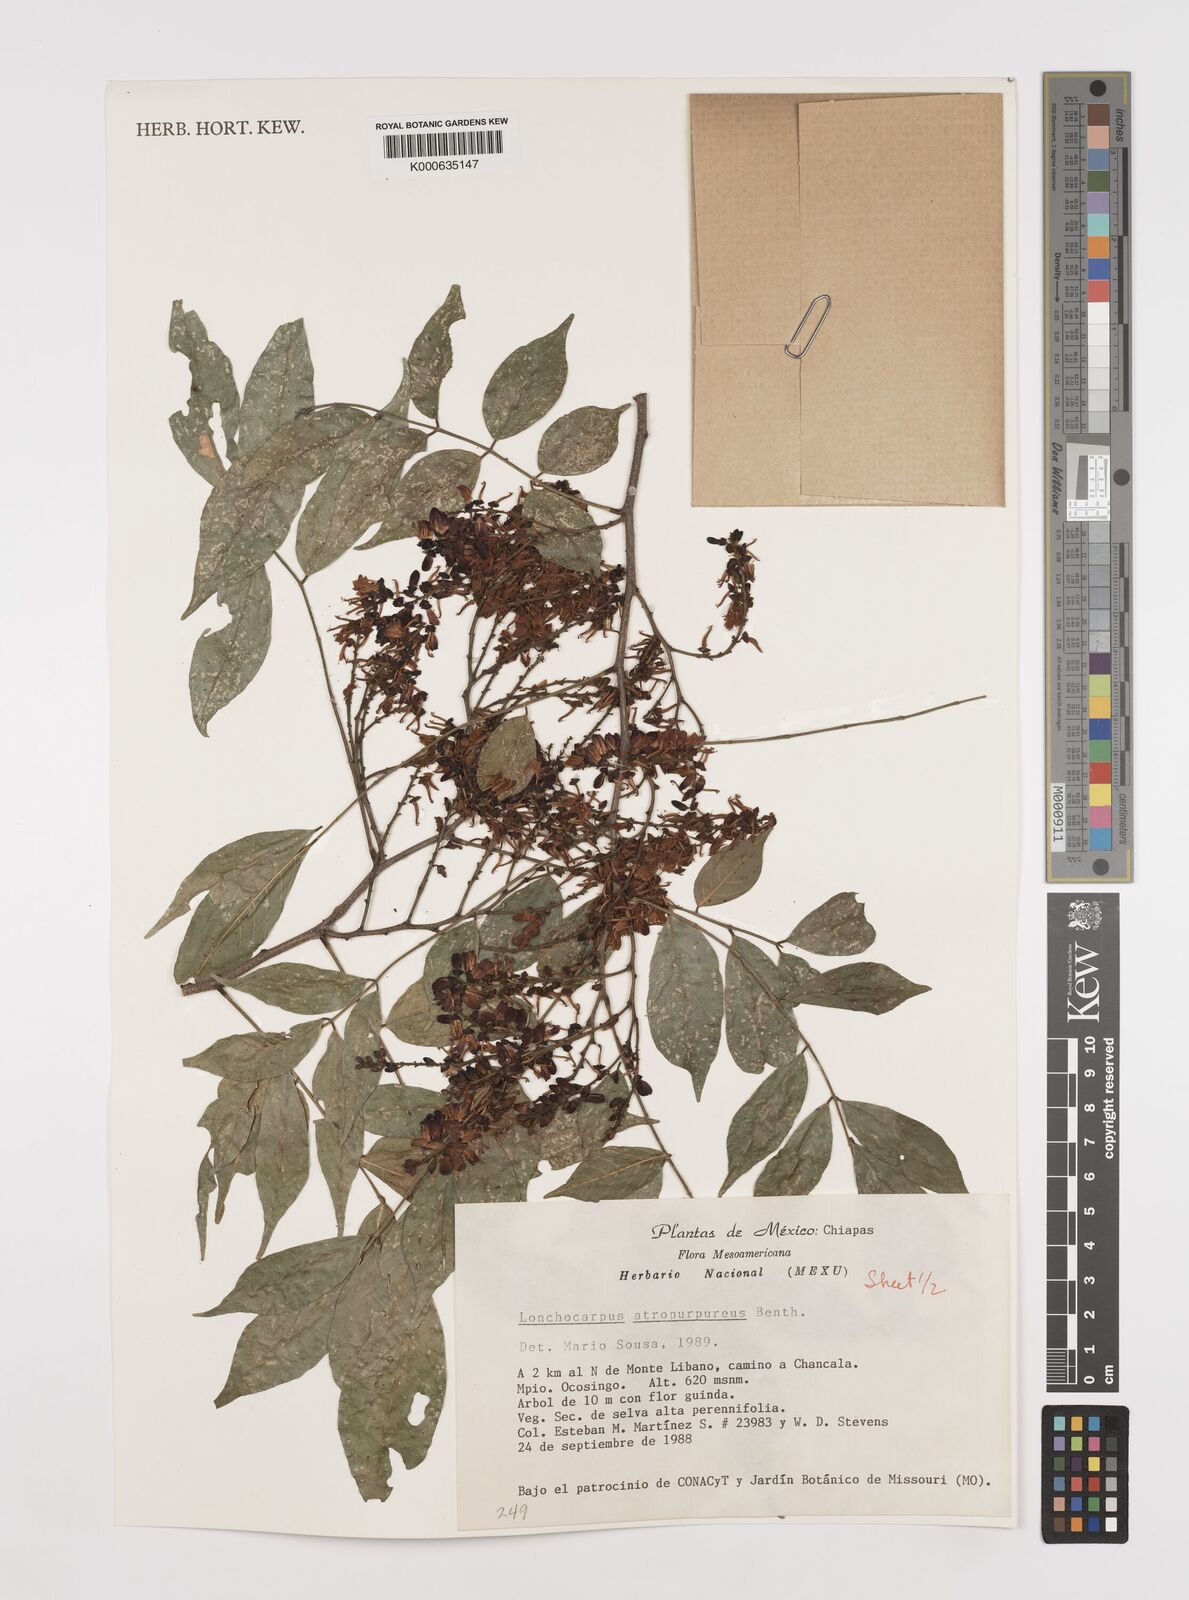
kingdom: Plantae
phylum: Tracheophyta
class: Magnoliopsida
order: Fabales
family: Fabaceae
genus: Lonchocarpus
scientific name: Lonchocarpus atropurpureus
